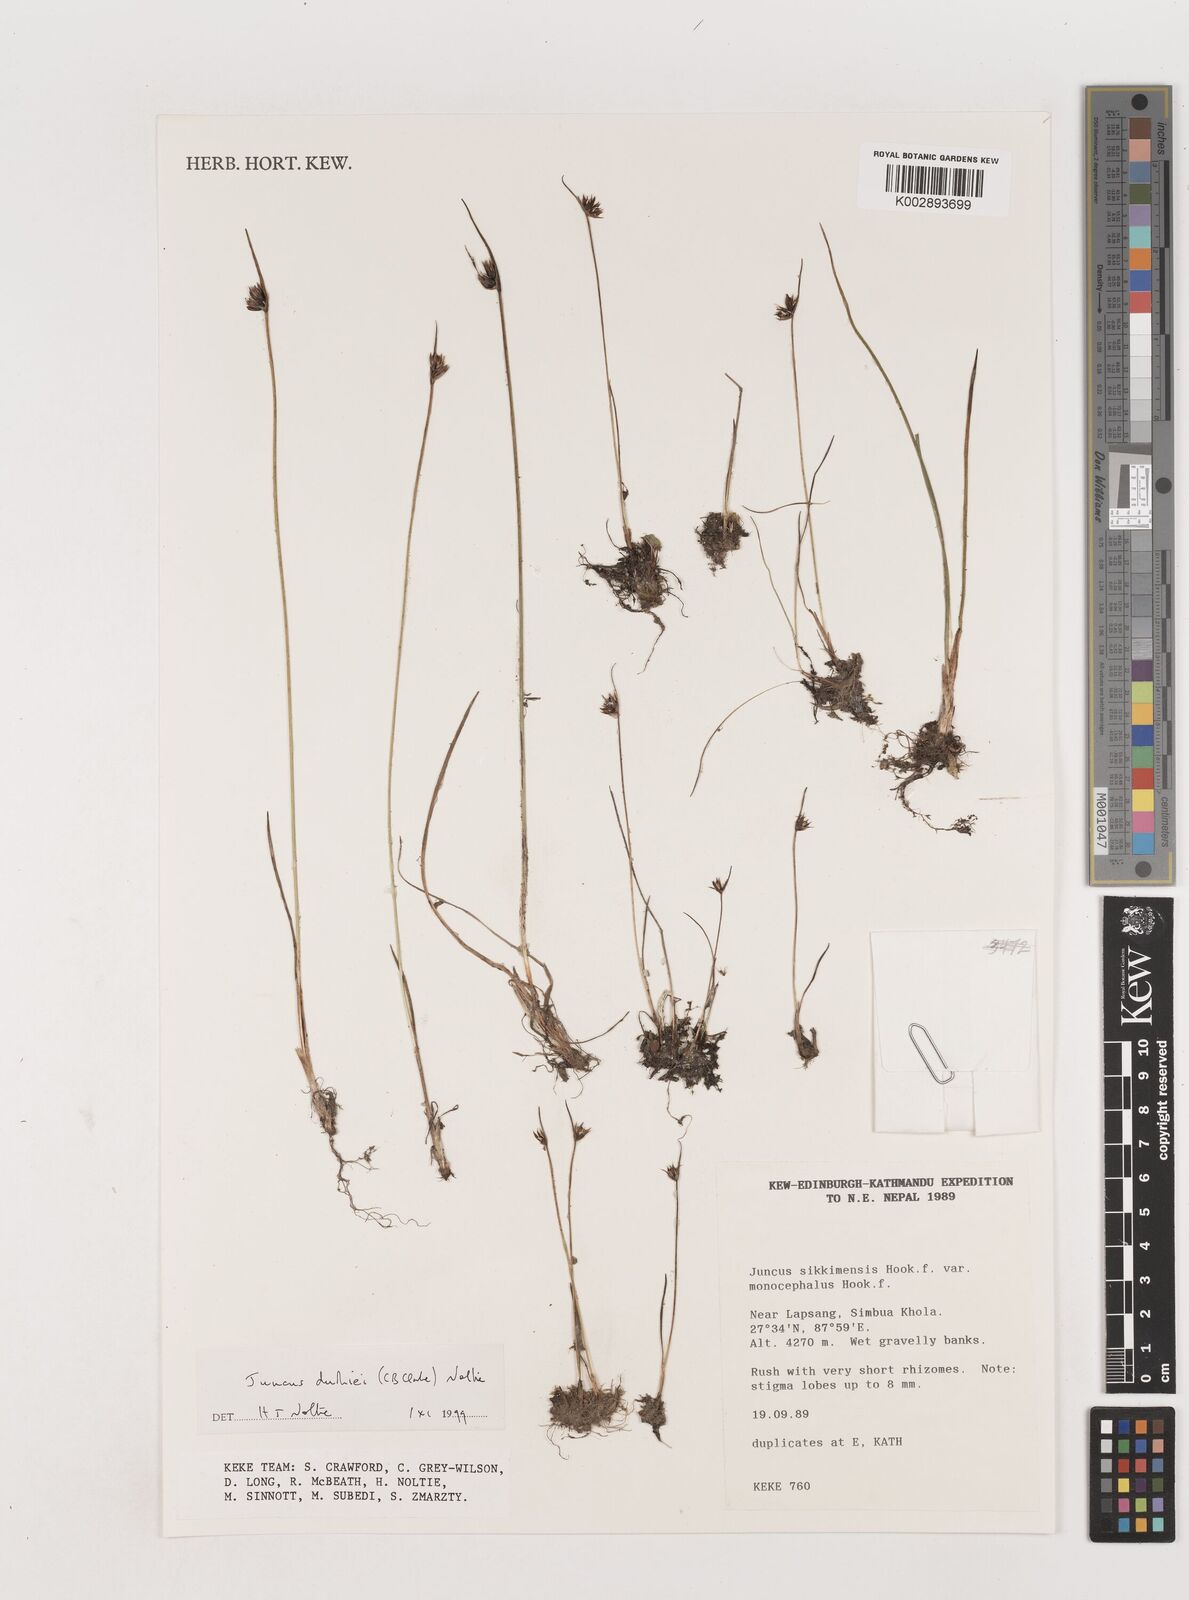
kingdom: Plantae
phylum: Tracheophyta
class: Liliopsida
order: Poales
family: Juncaceae
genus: Juncus
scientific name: Juncus duthiei
